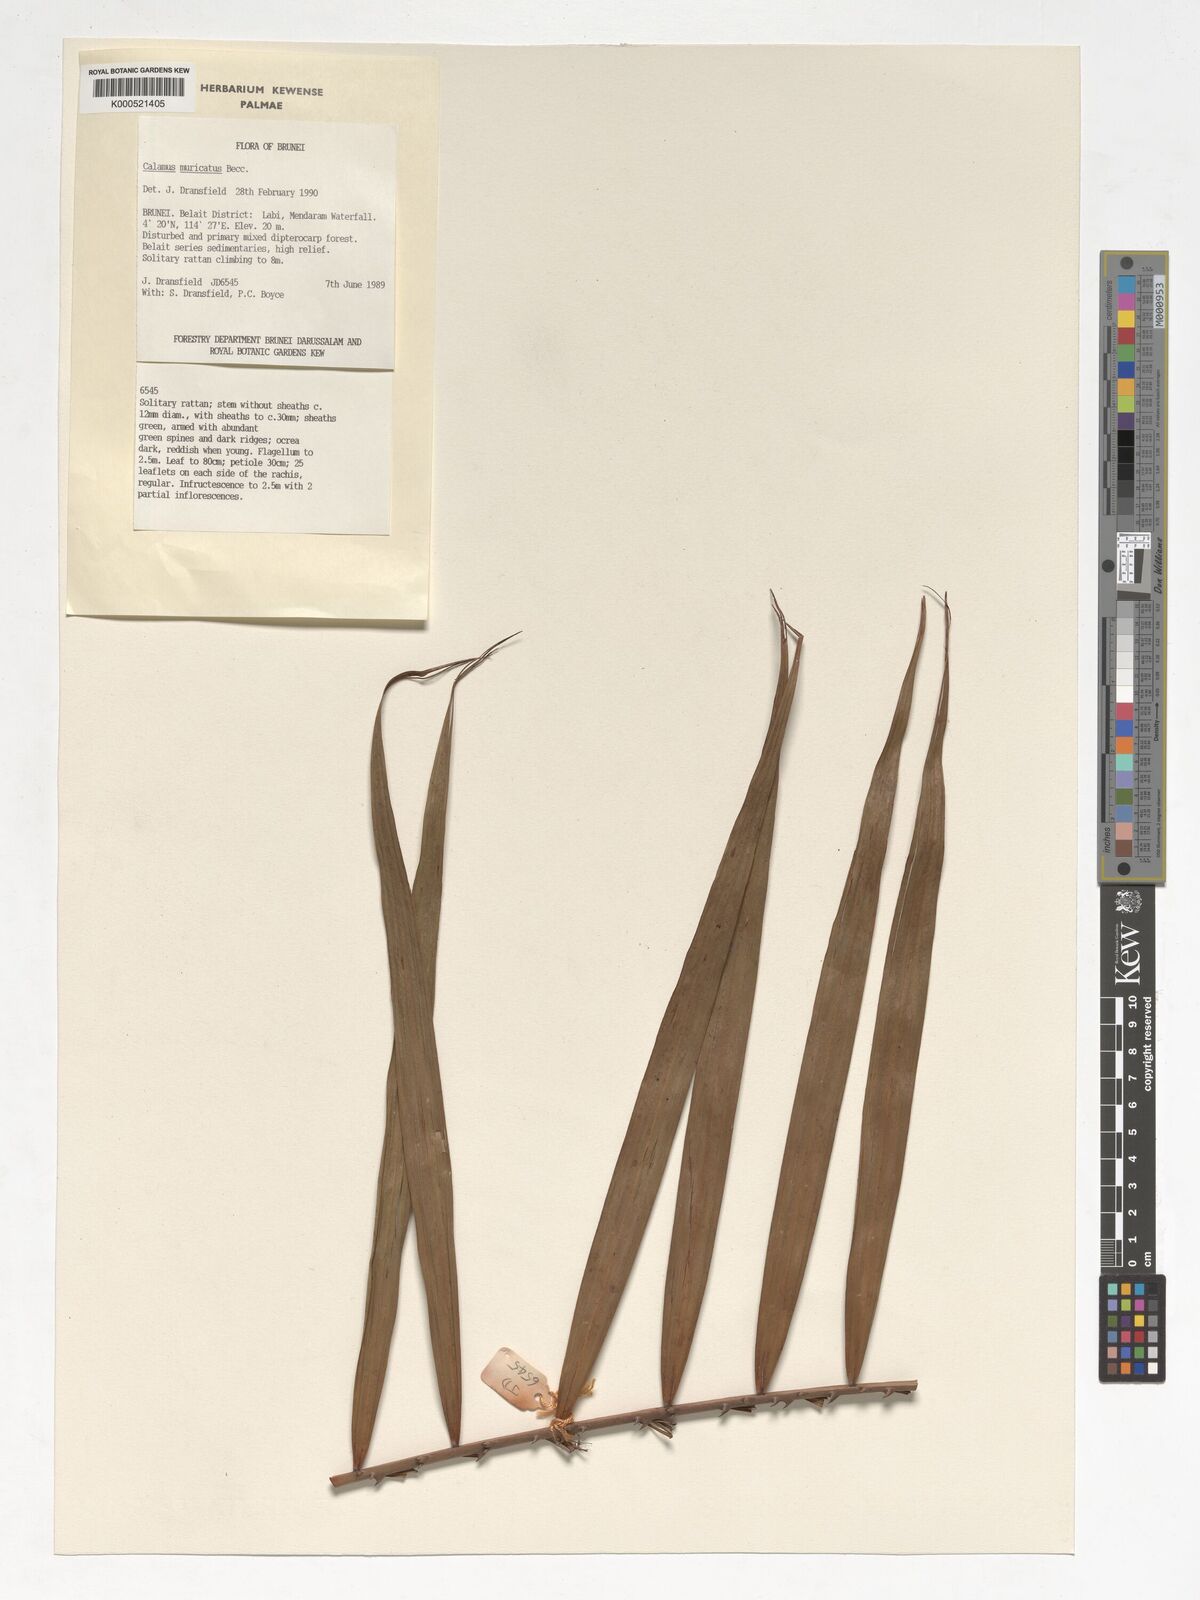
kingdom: Plantae
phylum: Tracheophyta
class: Liliopsida
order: Arecales
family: Arecaceae
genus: Calamus
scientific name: Calamus muricatus
